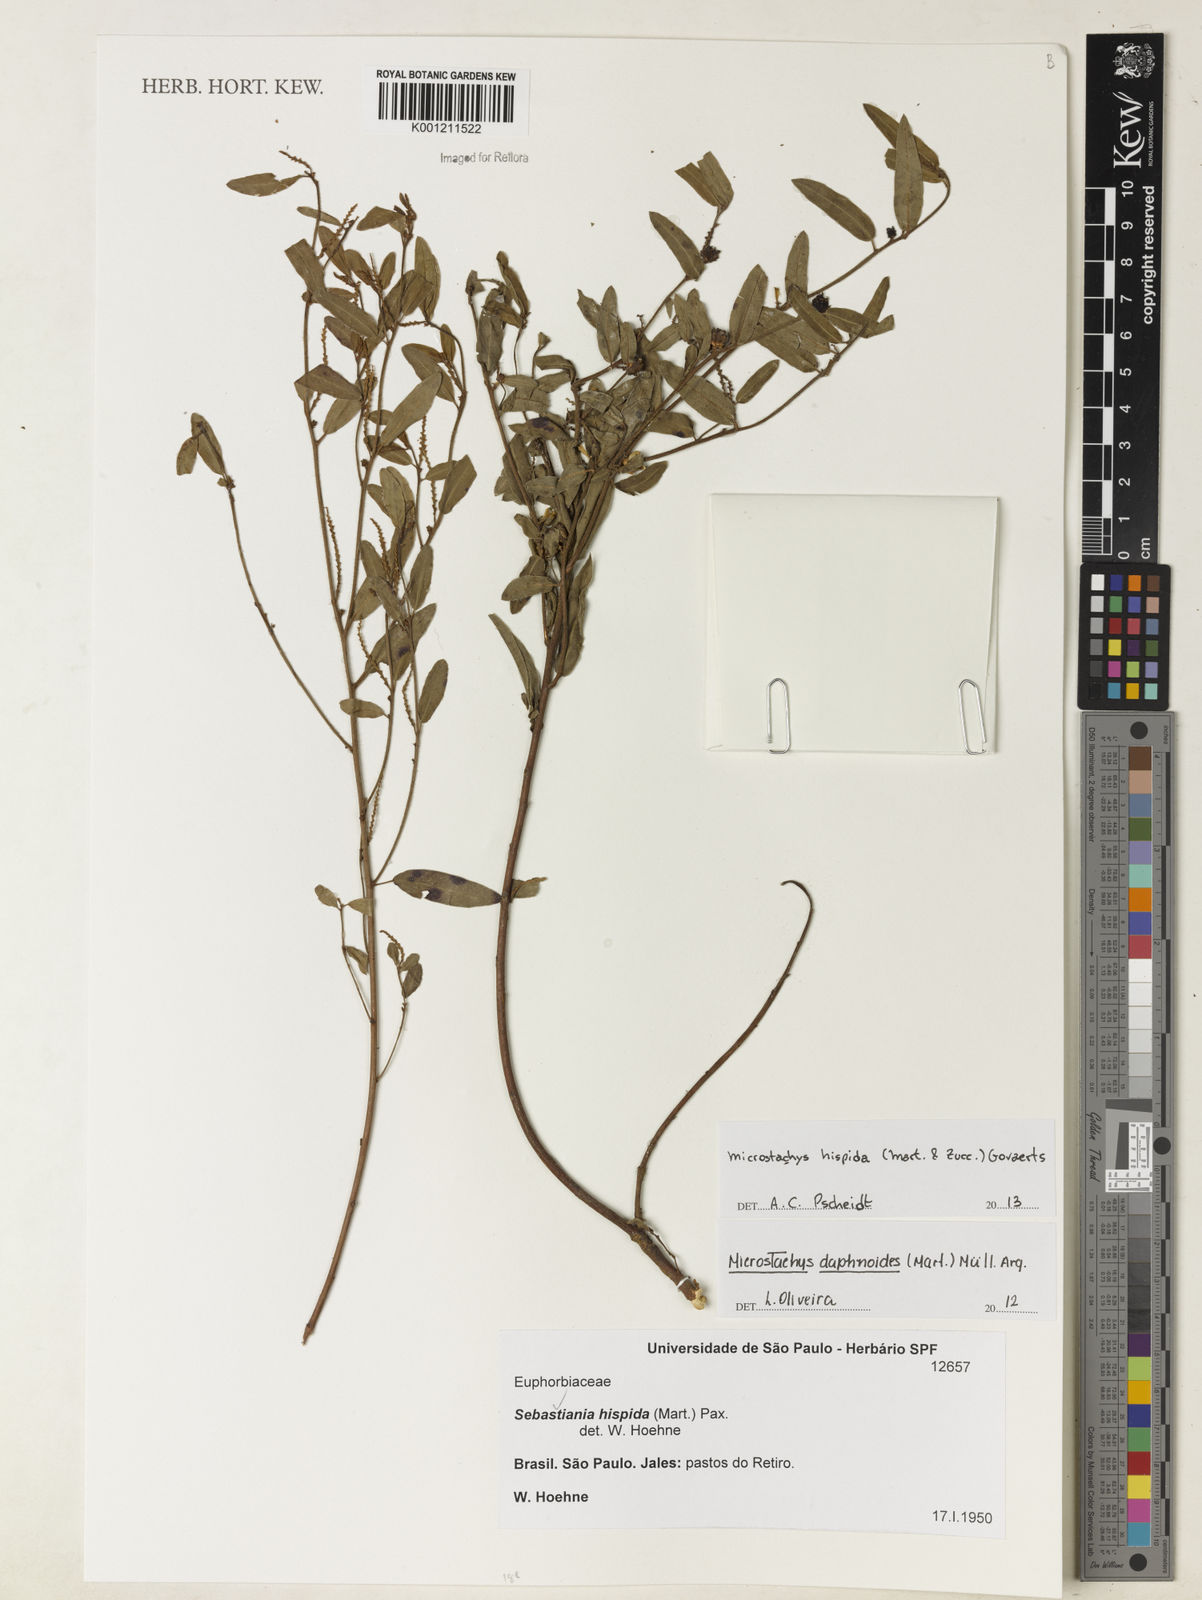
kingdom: Plantae
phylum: Tracheophyta
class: Magnoliopsida
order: Malpighiales
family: Euphorbiaceae
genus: Microstachys
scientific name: Microstachys hispida
